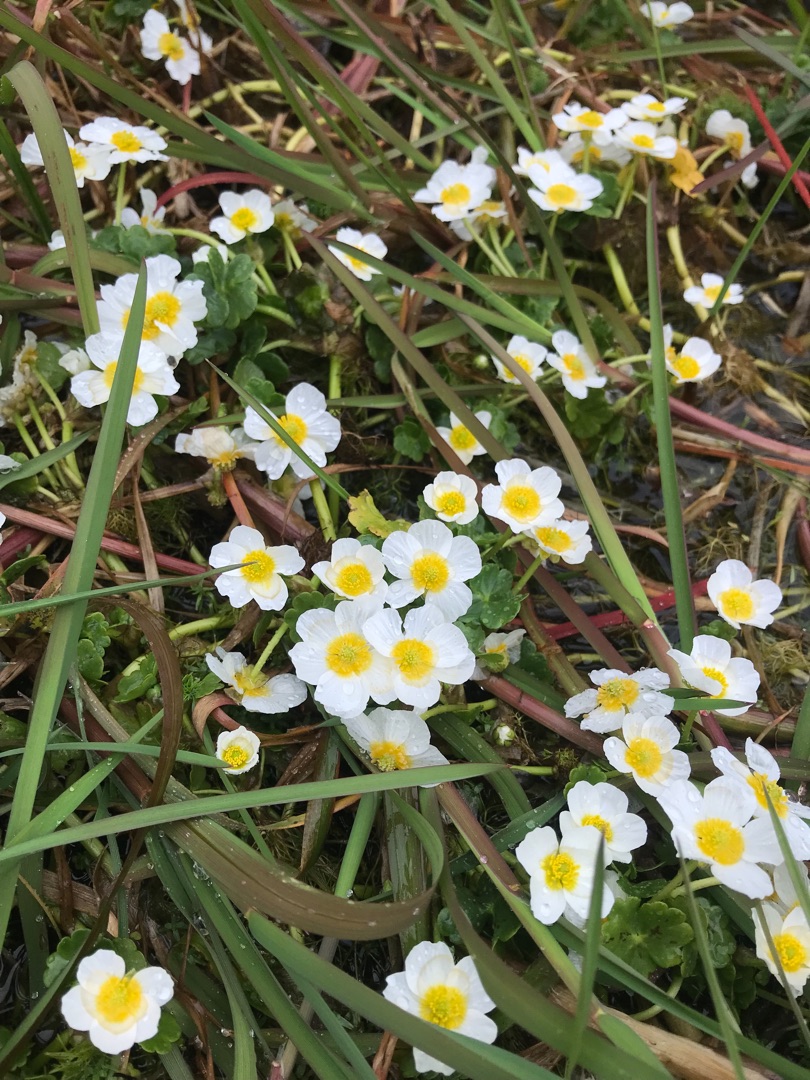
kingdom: Plantae
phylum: Tracheophyta
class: Magnoliopsida
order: Ranunculales
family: Ranunculaceae
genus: Ranunculus
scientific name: Ranunculus peltatus
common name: Storblomstret vandranunkel
